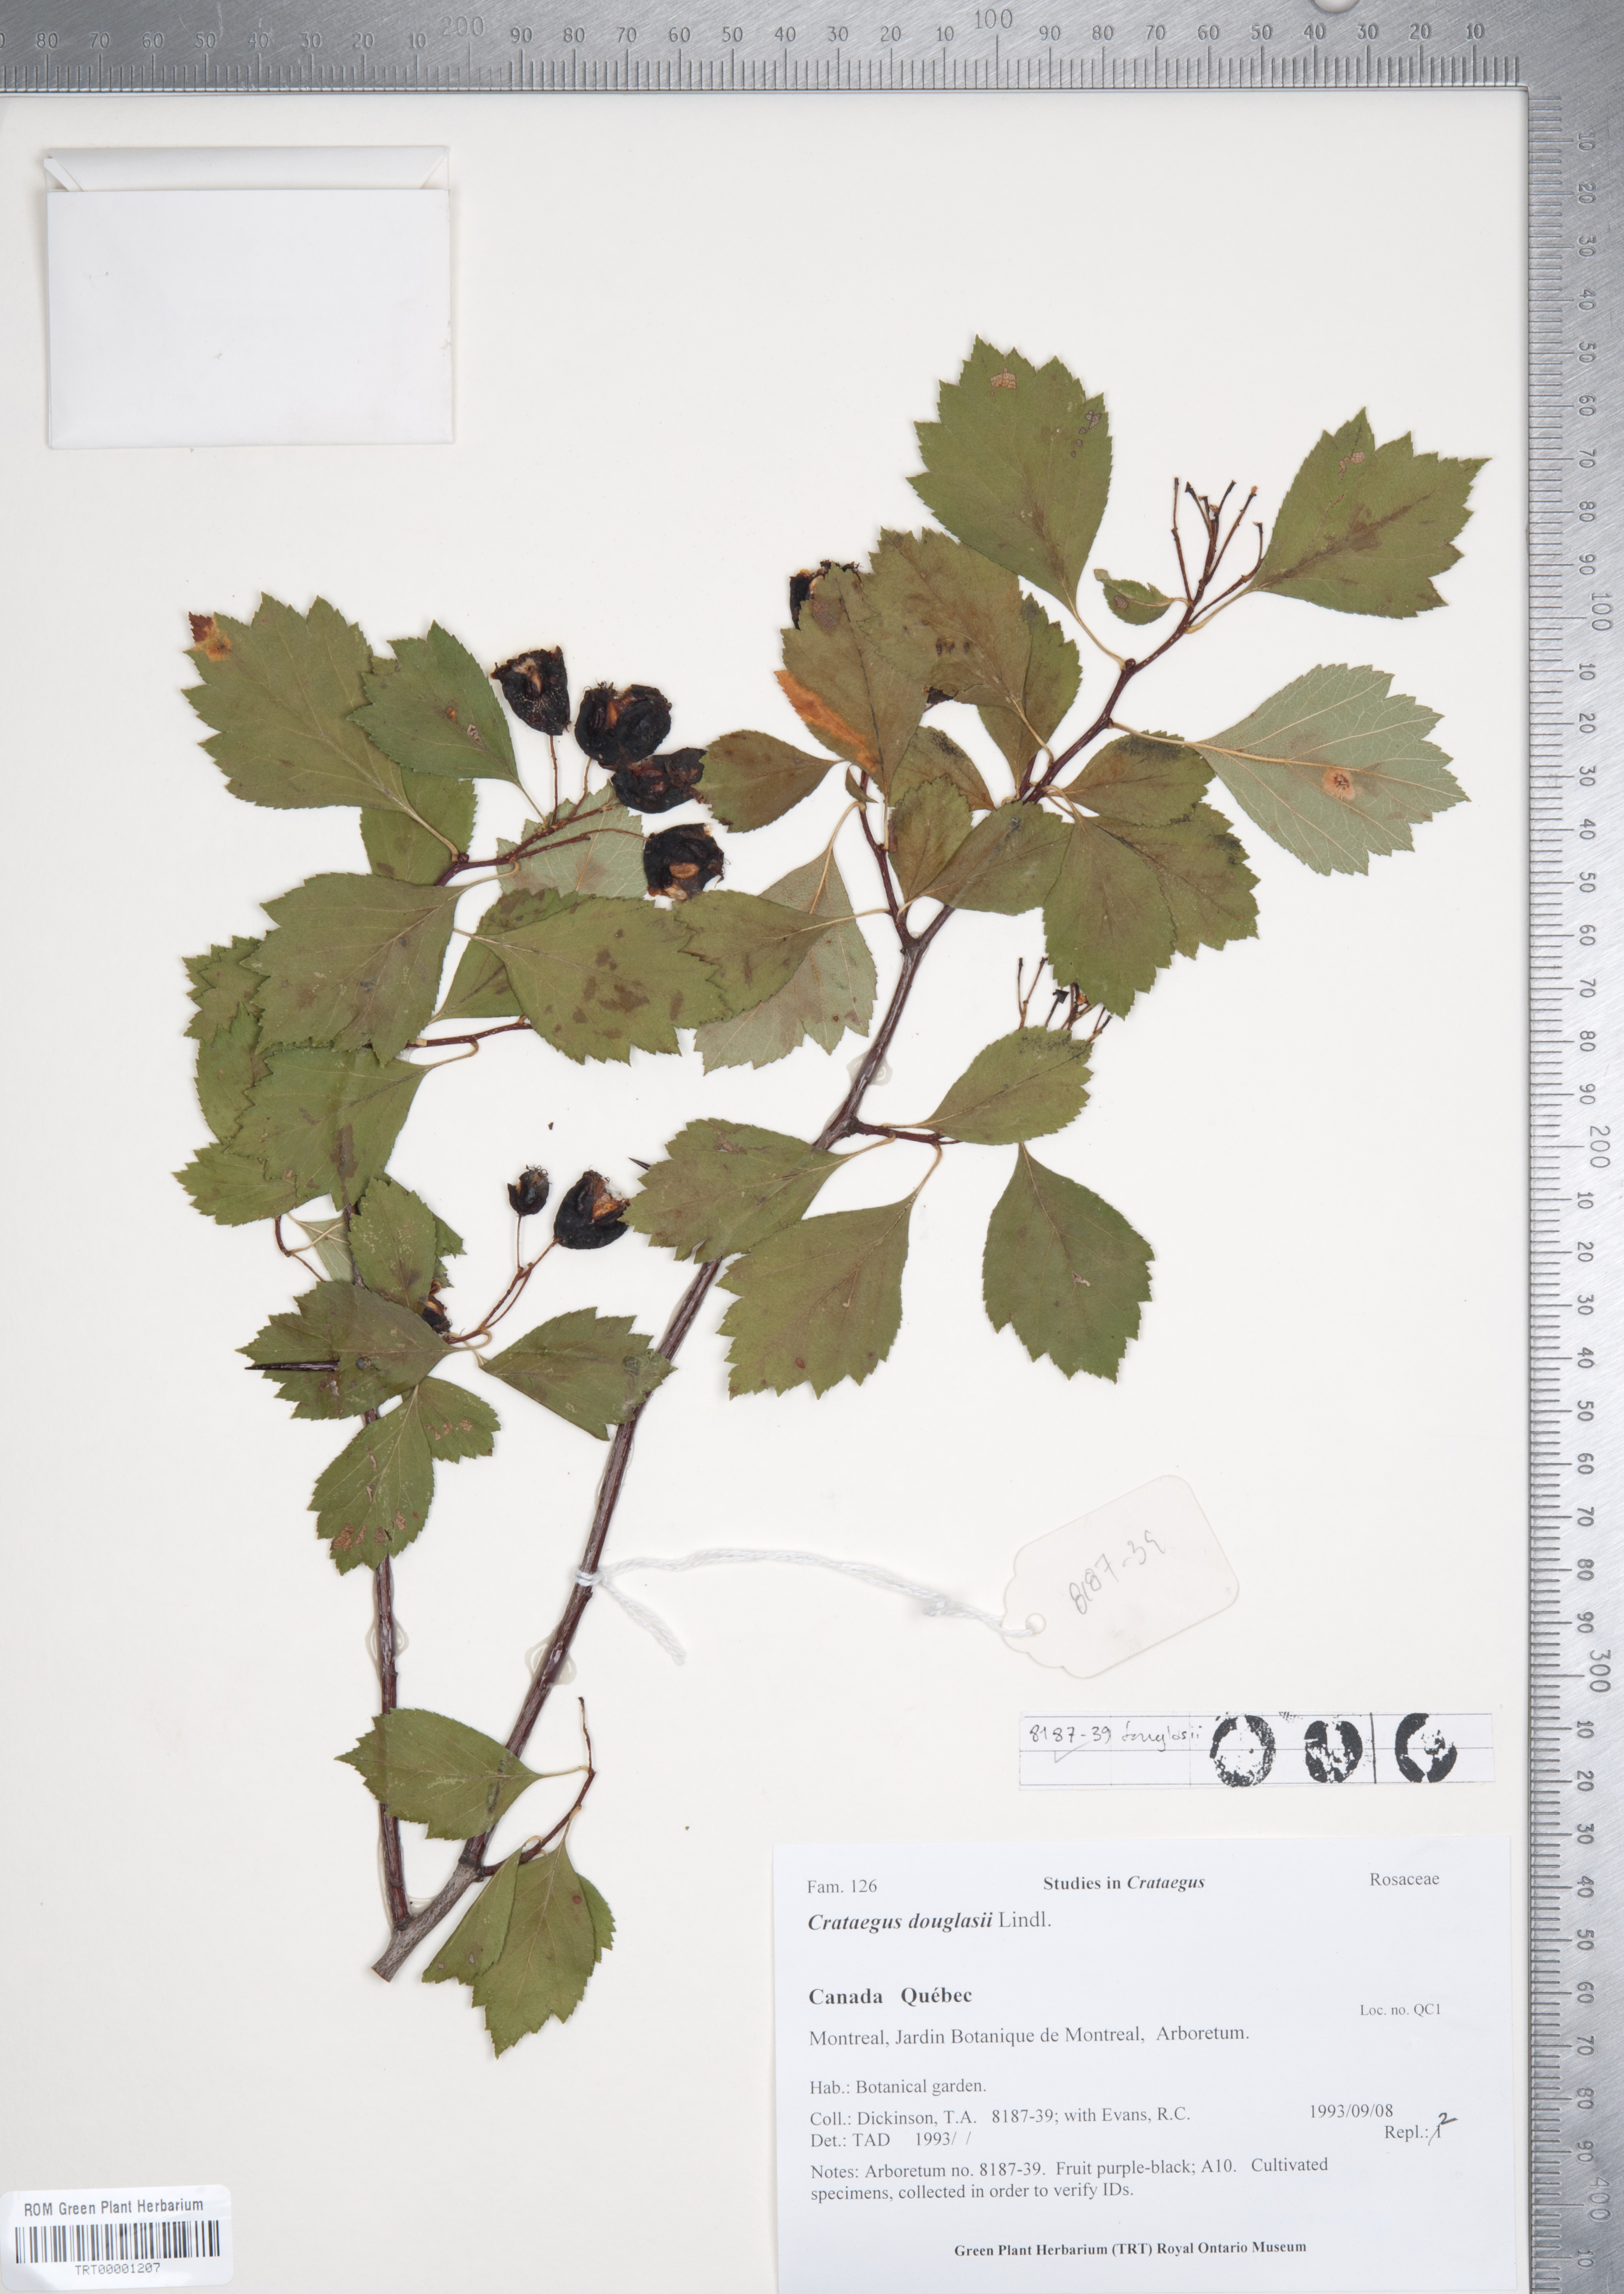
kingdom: Plantae
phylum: Tracheophyta
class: Magnoliopsida
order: Rosales
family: Rosaceae
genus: Crataegus
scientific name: Crataegus douglasii
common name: Black hawthorn
